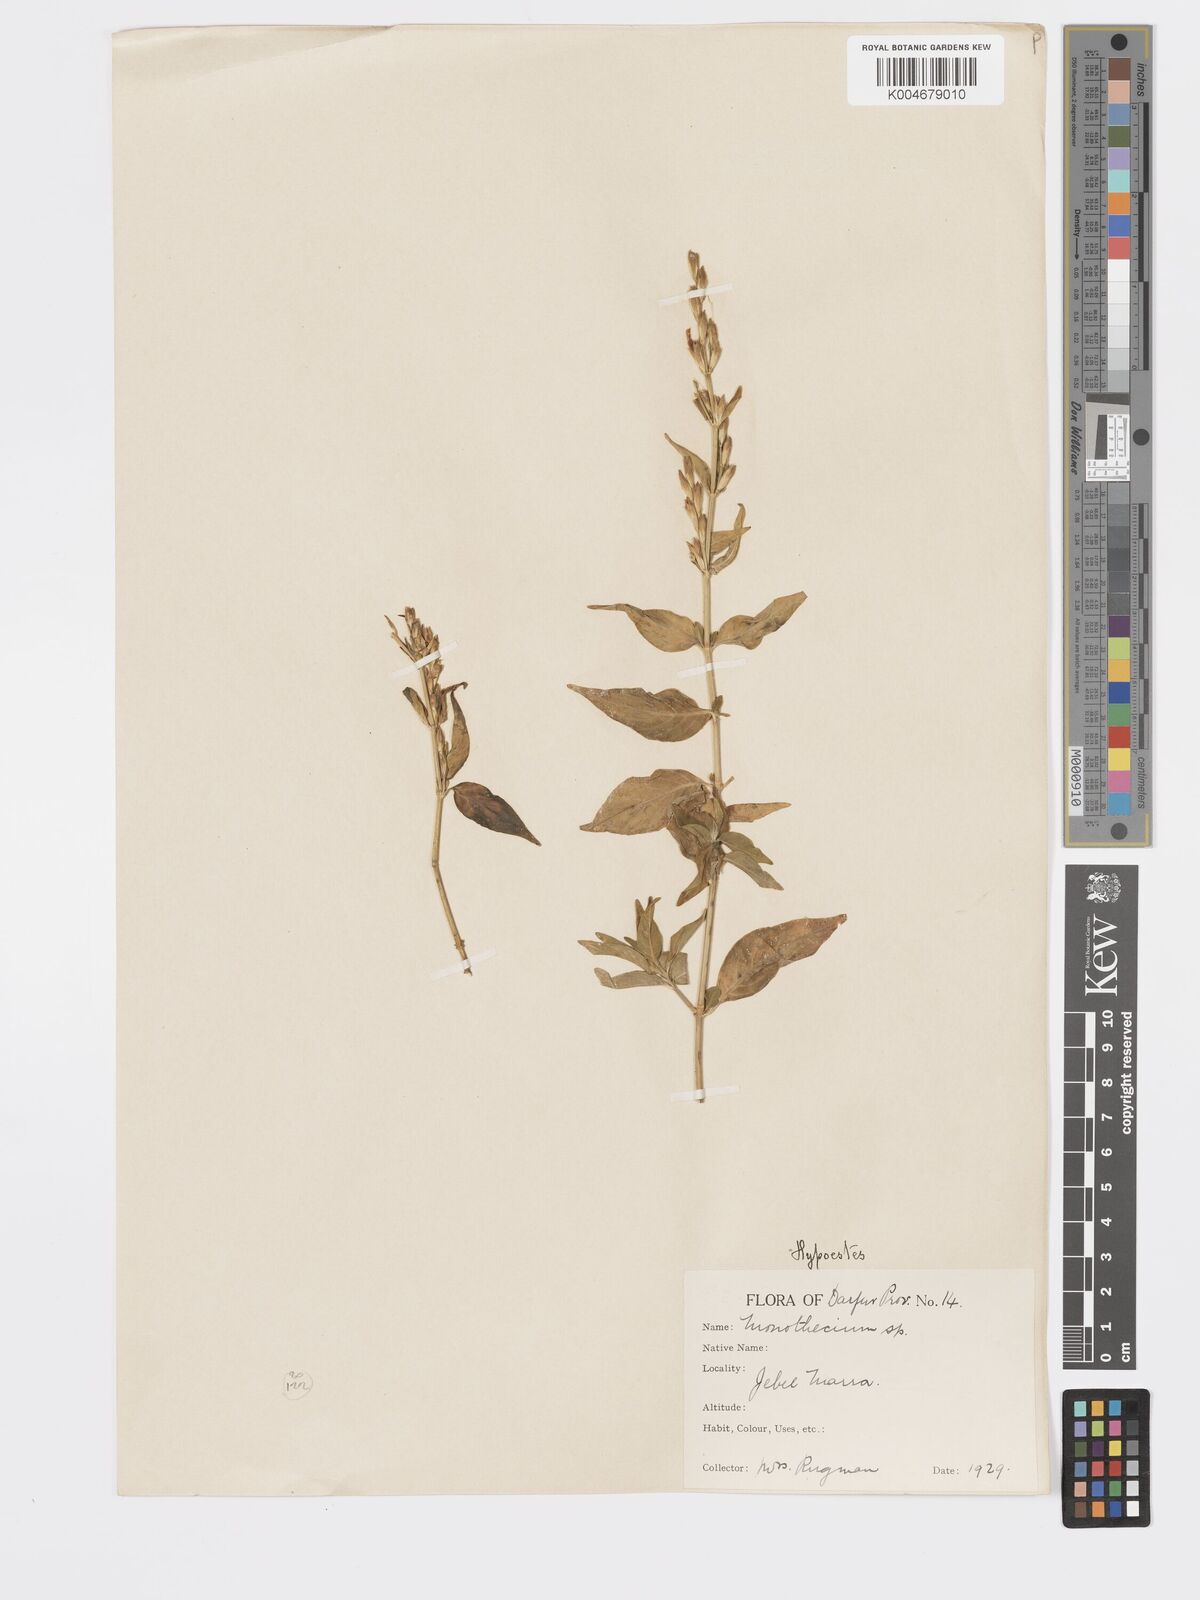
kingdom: Plantae
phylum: Tracheophyta
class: Magnoliopsida
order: Lamiales
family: Acanthaceae
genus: Hypoestes
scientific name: Hypoestes forskaolii
